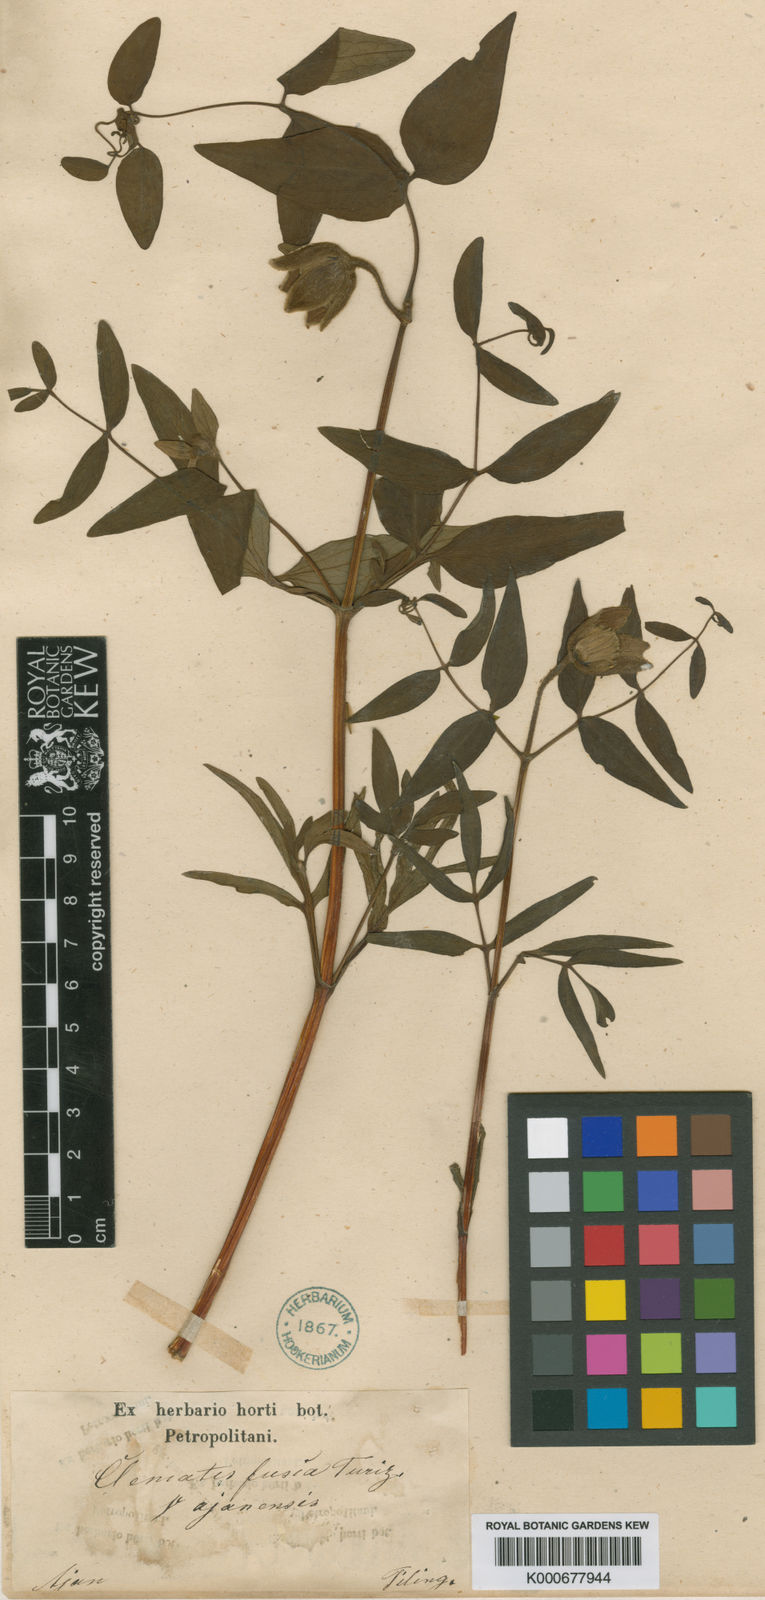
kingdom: Plantae
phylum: Tracheophyta
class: Magnoliopsida
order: Ranunculales
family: Ranunculaceae
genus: Clematis
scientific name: Clematis fusca
